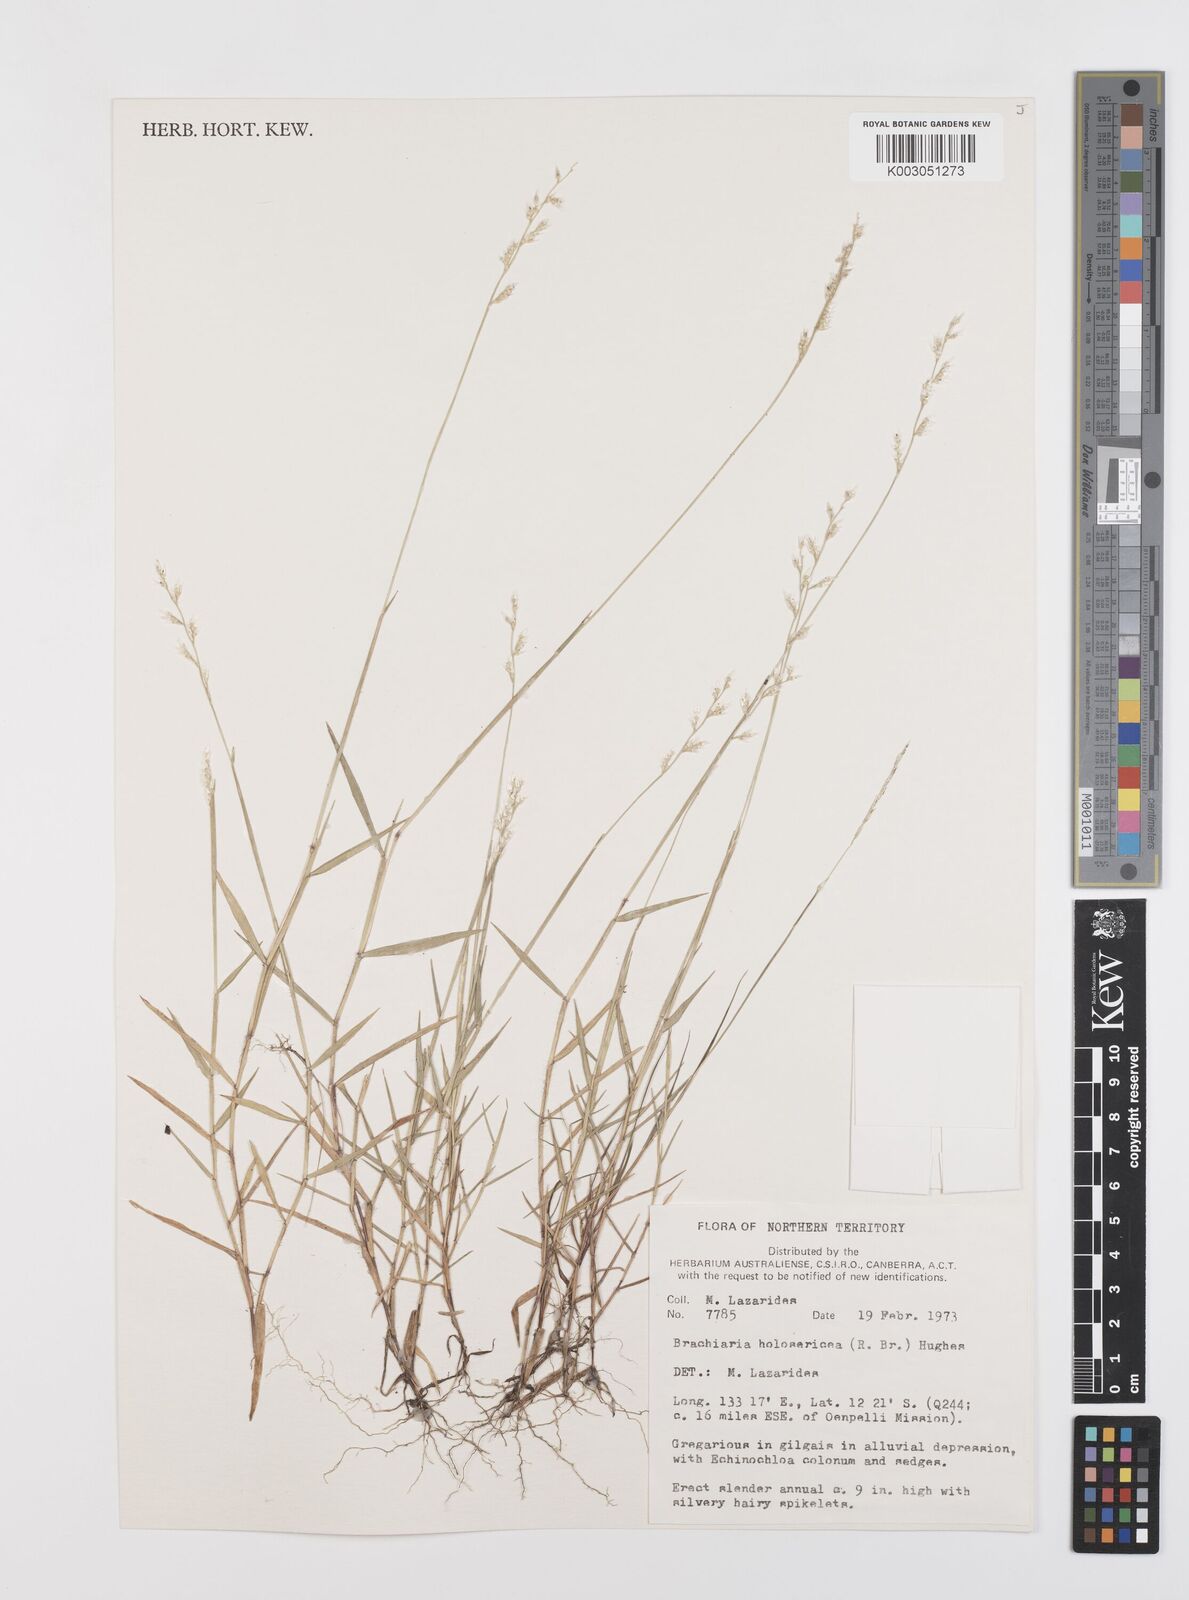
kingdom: Plantae
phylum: Tracheophyta
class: Liliopsida
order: Poales
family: Poaceae
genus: Urochloa
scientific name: Urochloa holosericea
